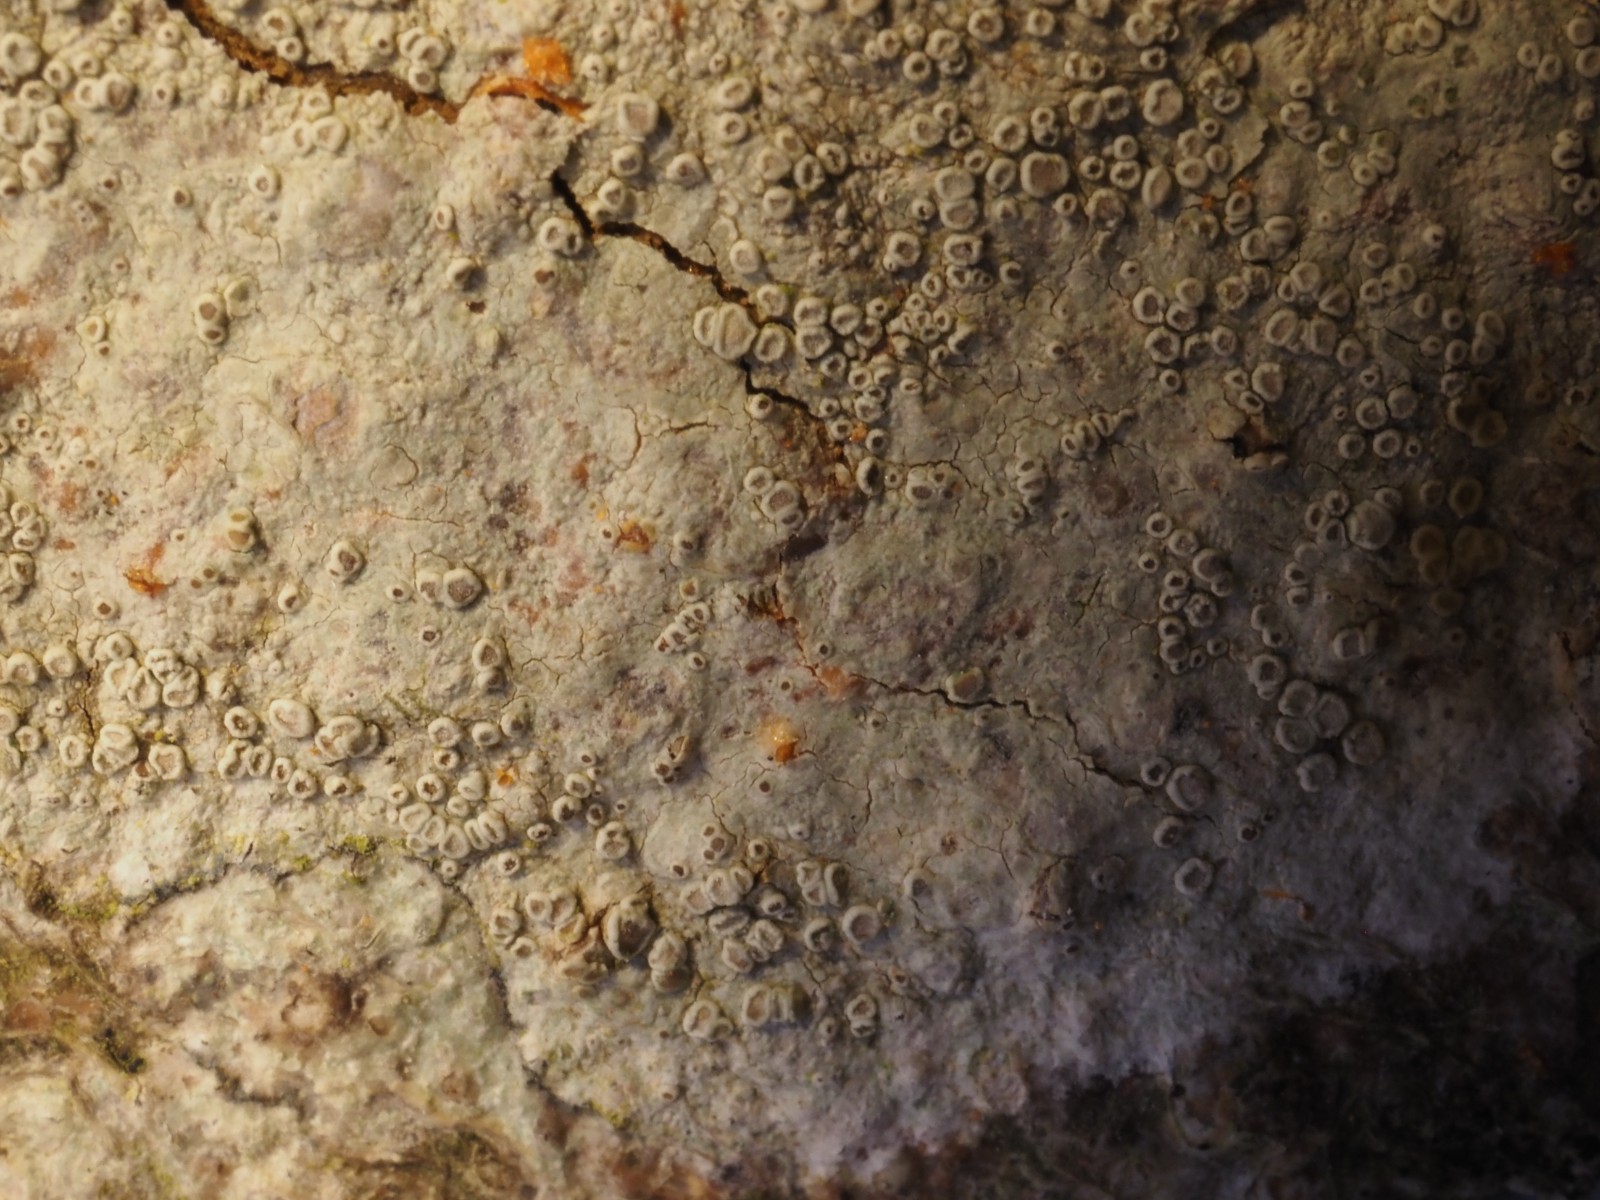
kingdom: Fungi
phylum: Ascomycota
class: Lecanoromycetes
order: Lecanorales
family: Lecanoraceae
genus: Lecanora
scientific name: Lecanora leptyrodes
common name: park-kantskivelav
